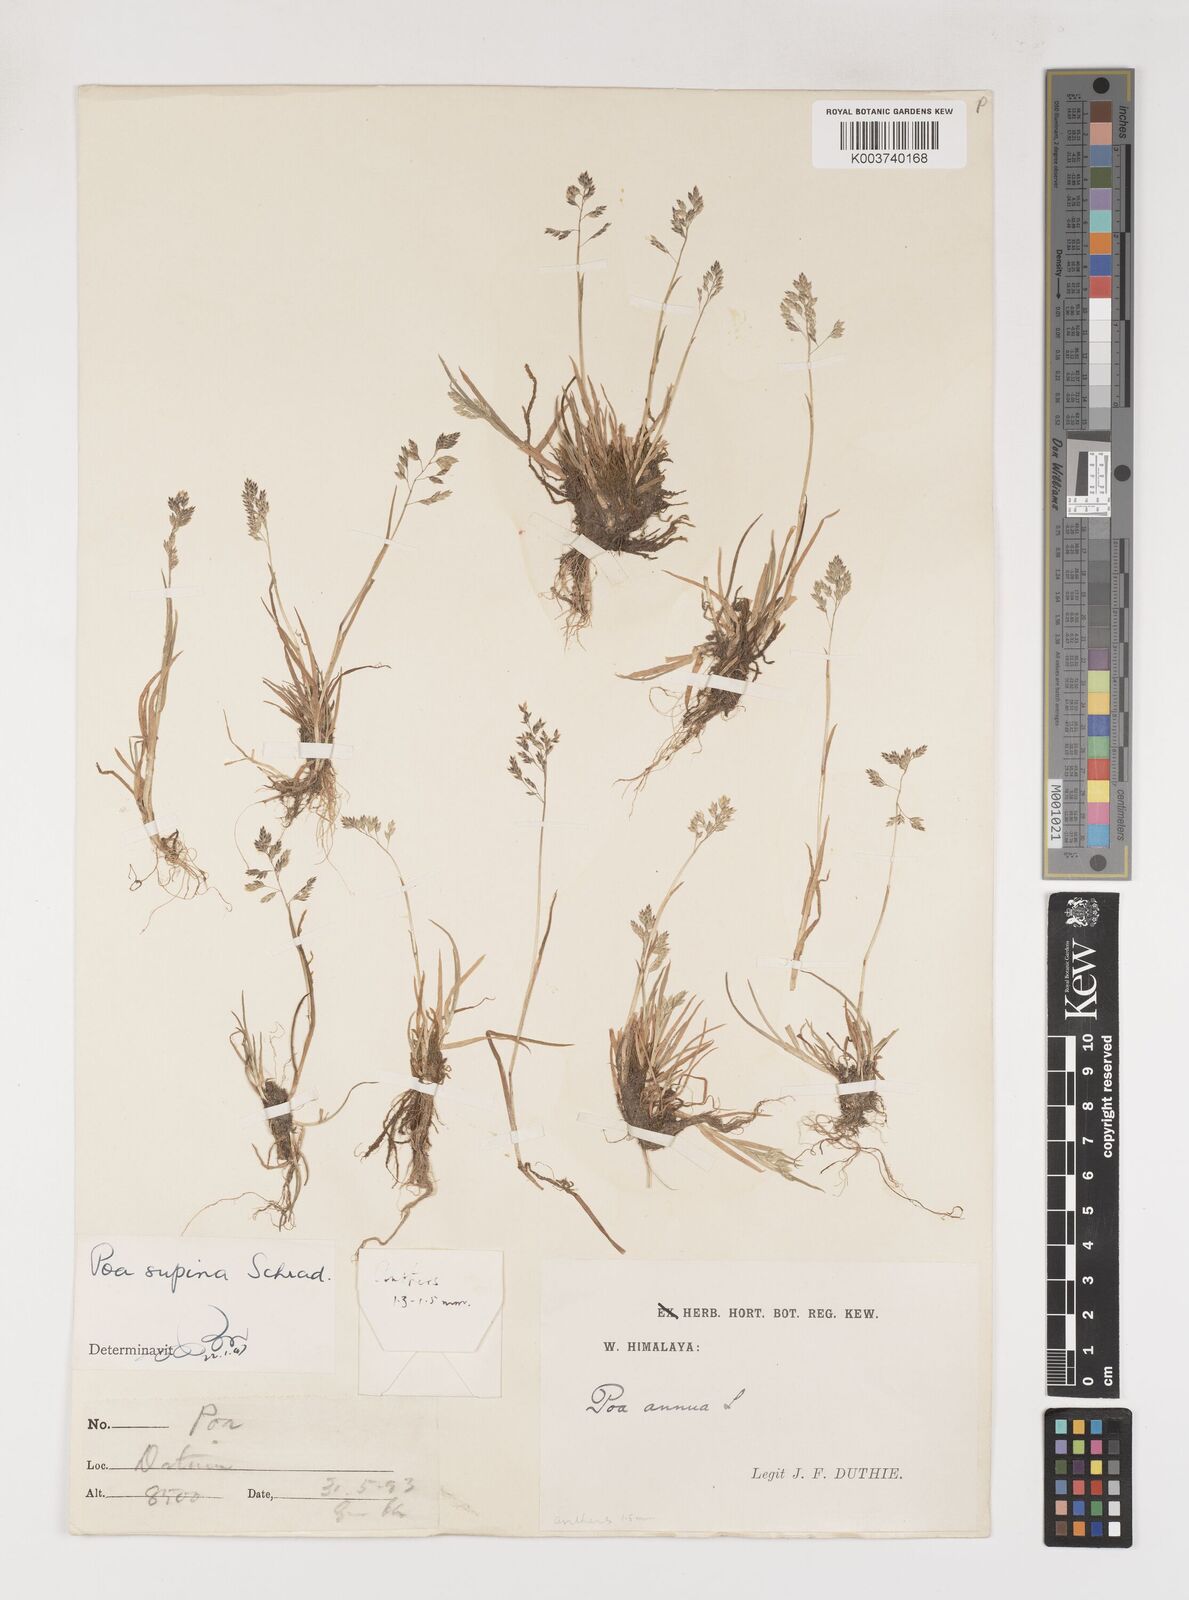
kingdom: Plantae
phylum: Tracheophyta
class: Liliopsida
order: Poales
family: Poaceae
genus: Poa
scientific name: Poa supina
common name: Supina bluegrass
